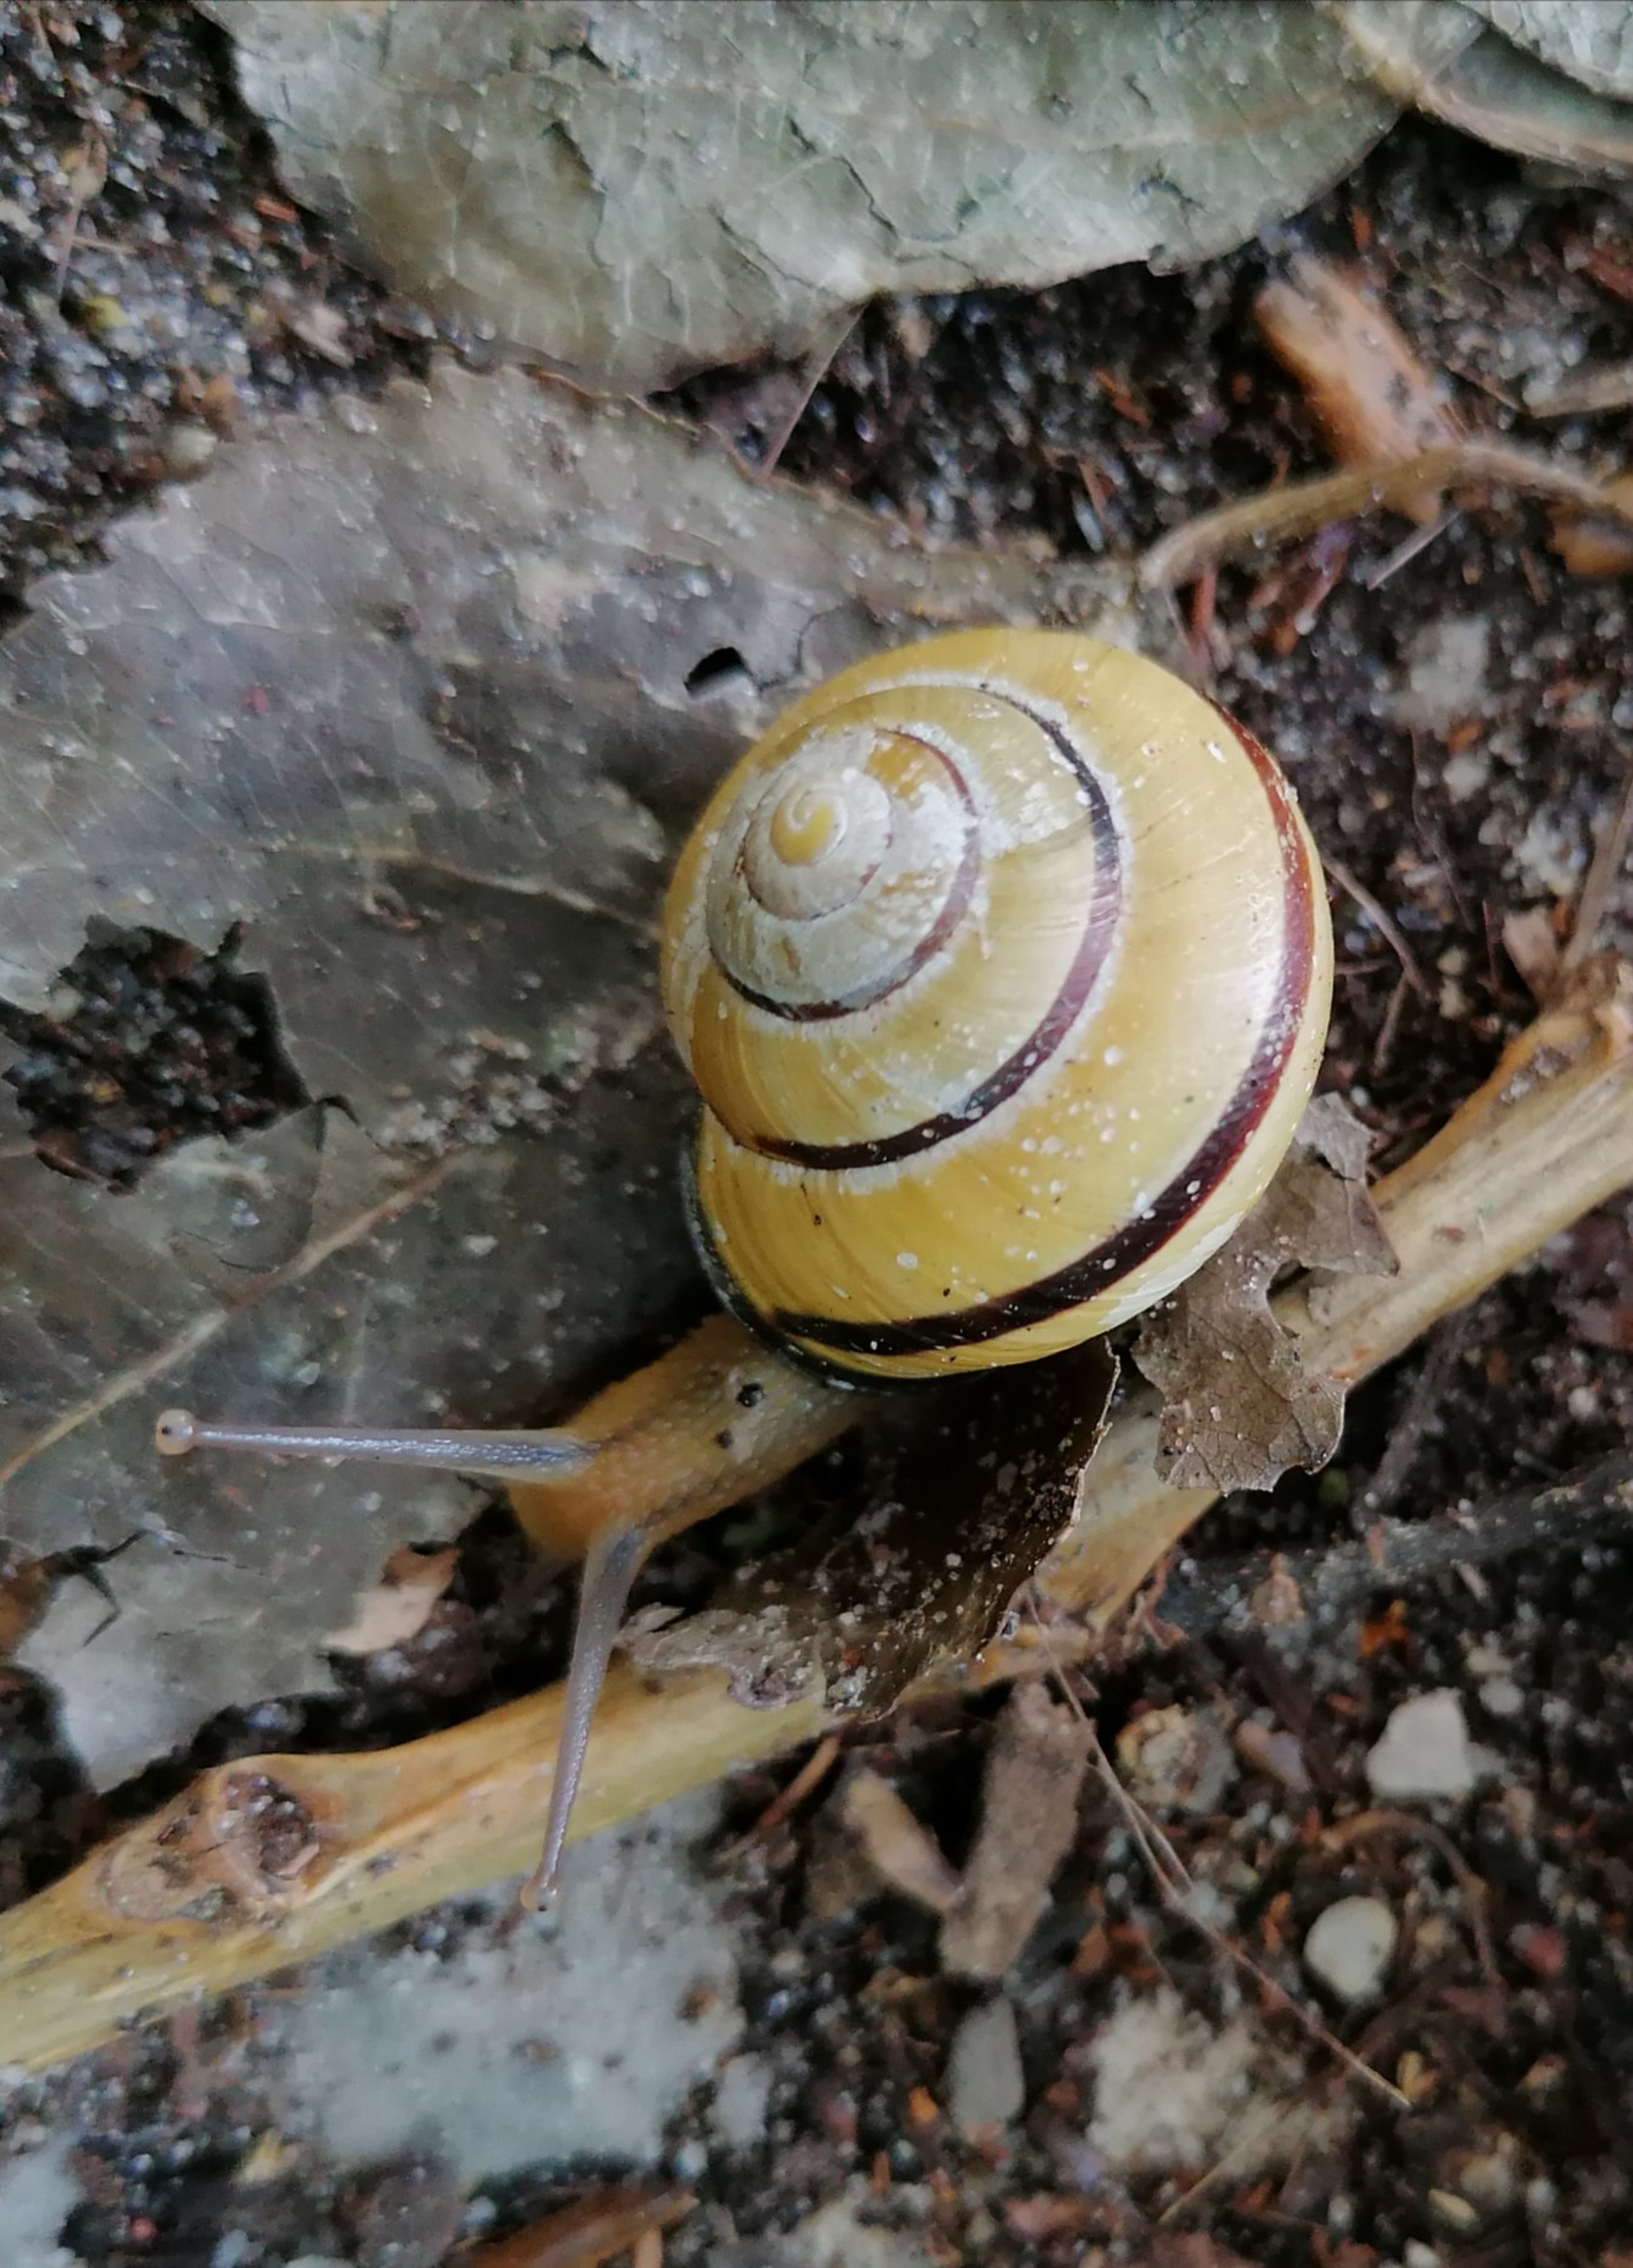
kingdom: Animalia
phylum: Mollusca
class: Gastropoda
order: Stylommatophora
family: Helicidae
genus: Cepaea
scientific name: Cepaea nemoralis
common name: Lundsnegl
